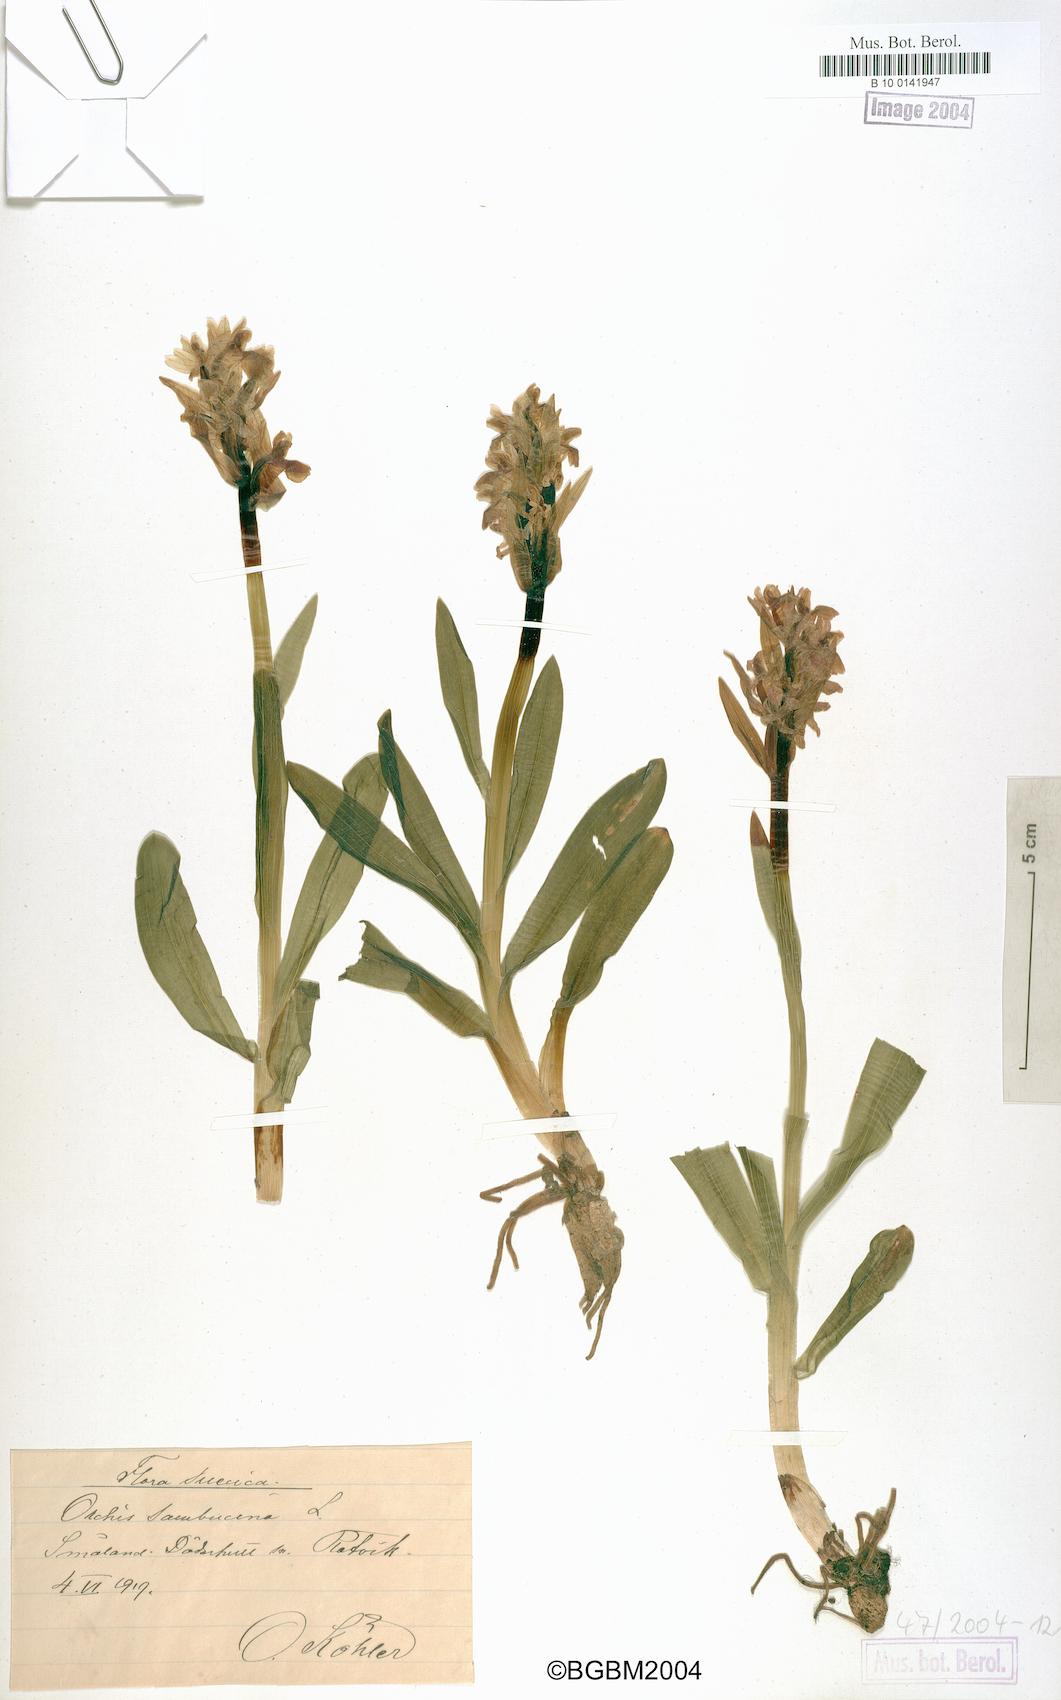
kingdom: Plantae
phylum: Tracheophyta
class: Liliopsida
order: Asparagales
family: Orchidaceae
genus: Dactylorhiza
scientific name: Dactylorhiza sambucina
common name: Elder-flowered orchid
